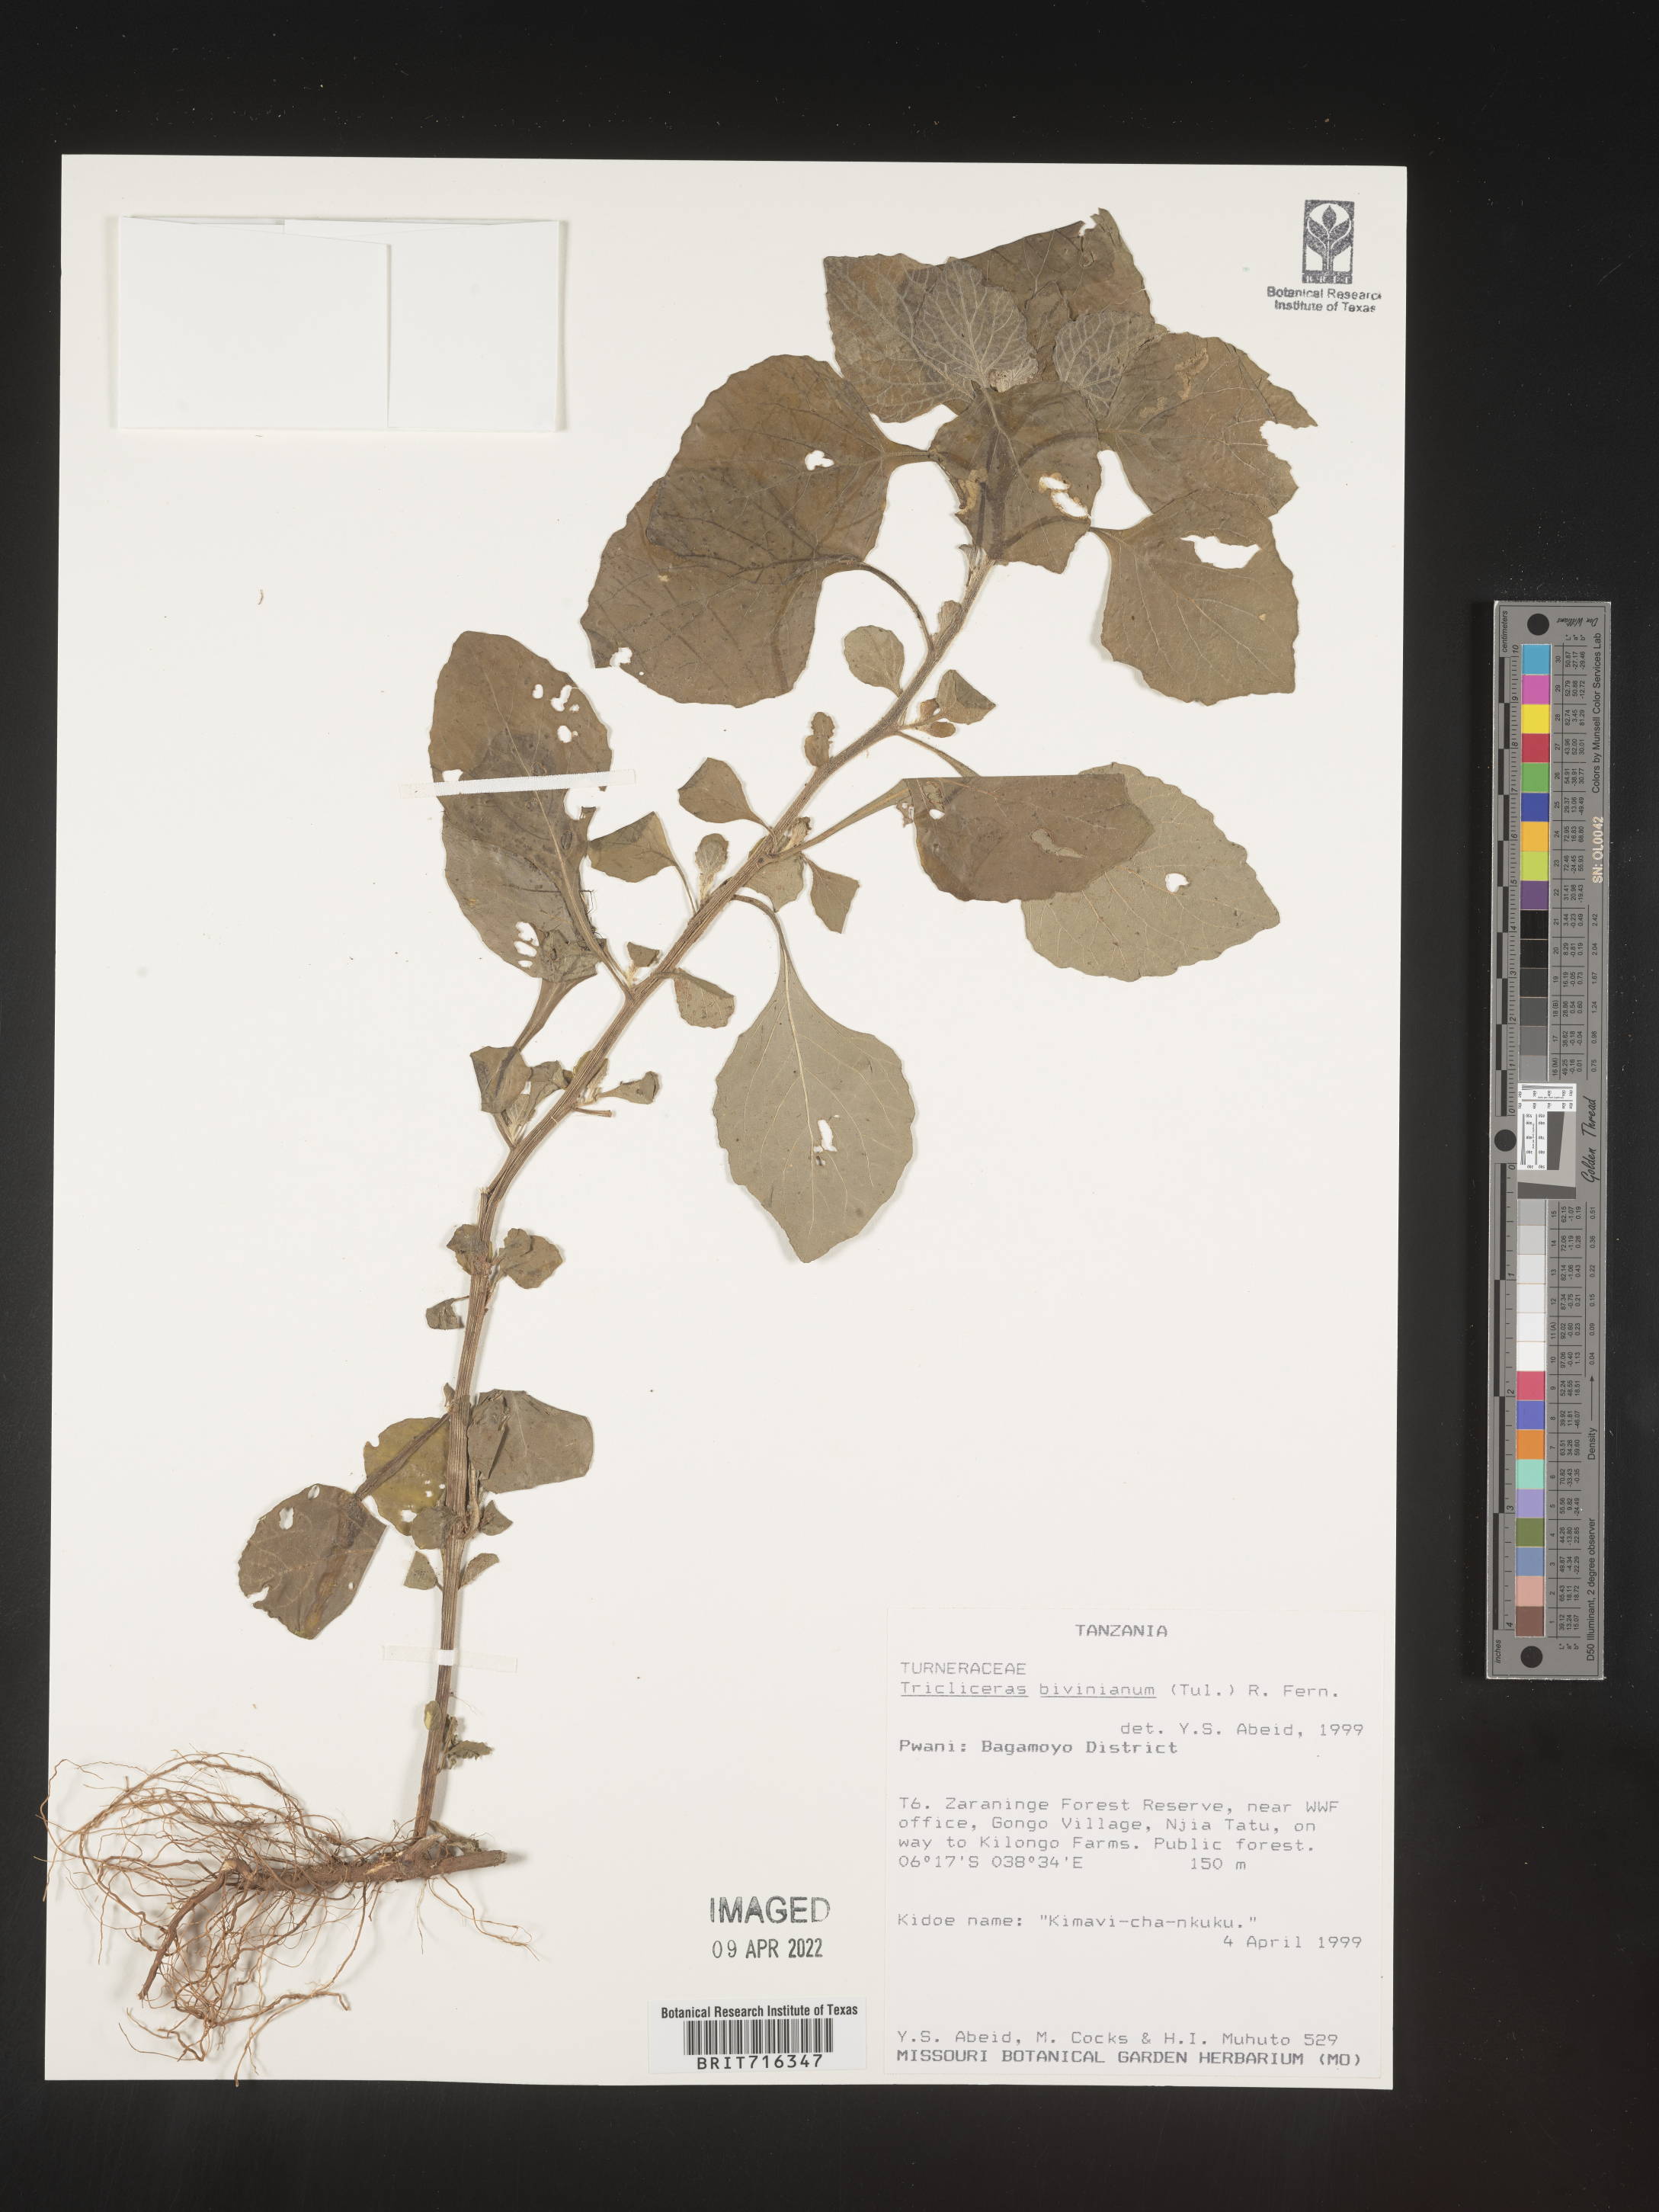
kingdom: Plantae
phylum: Tracheophyta
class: Magnoliopsida
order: Malpighiales
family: Turneraceae
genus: Tricliceras
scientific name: Tricliceras
